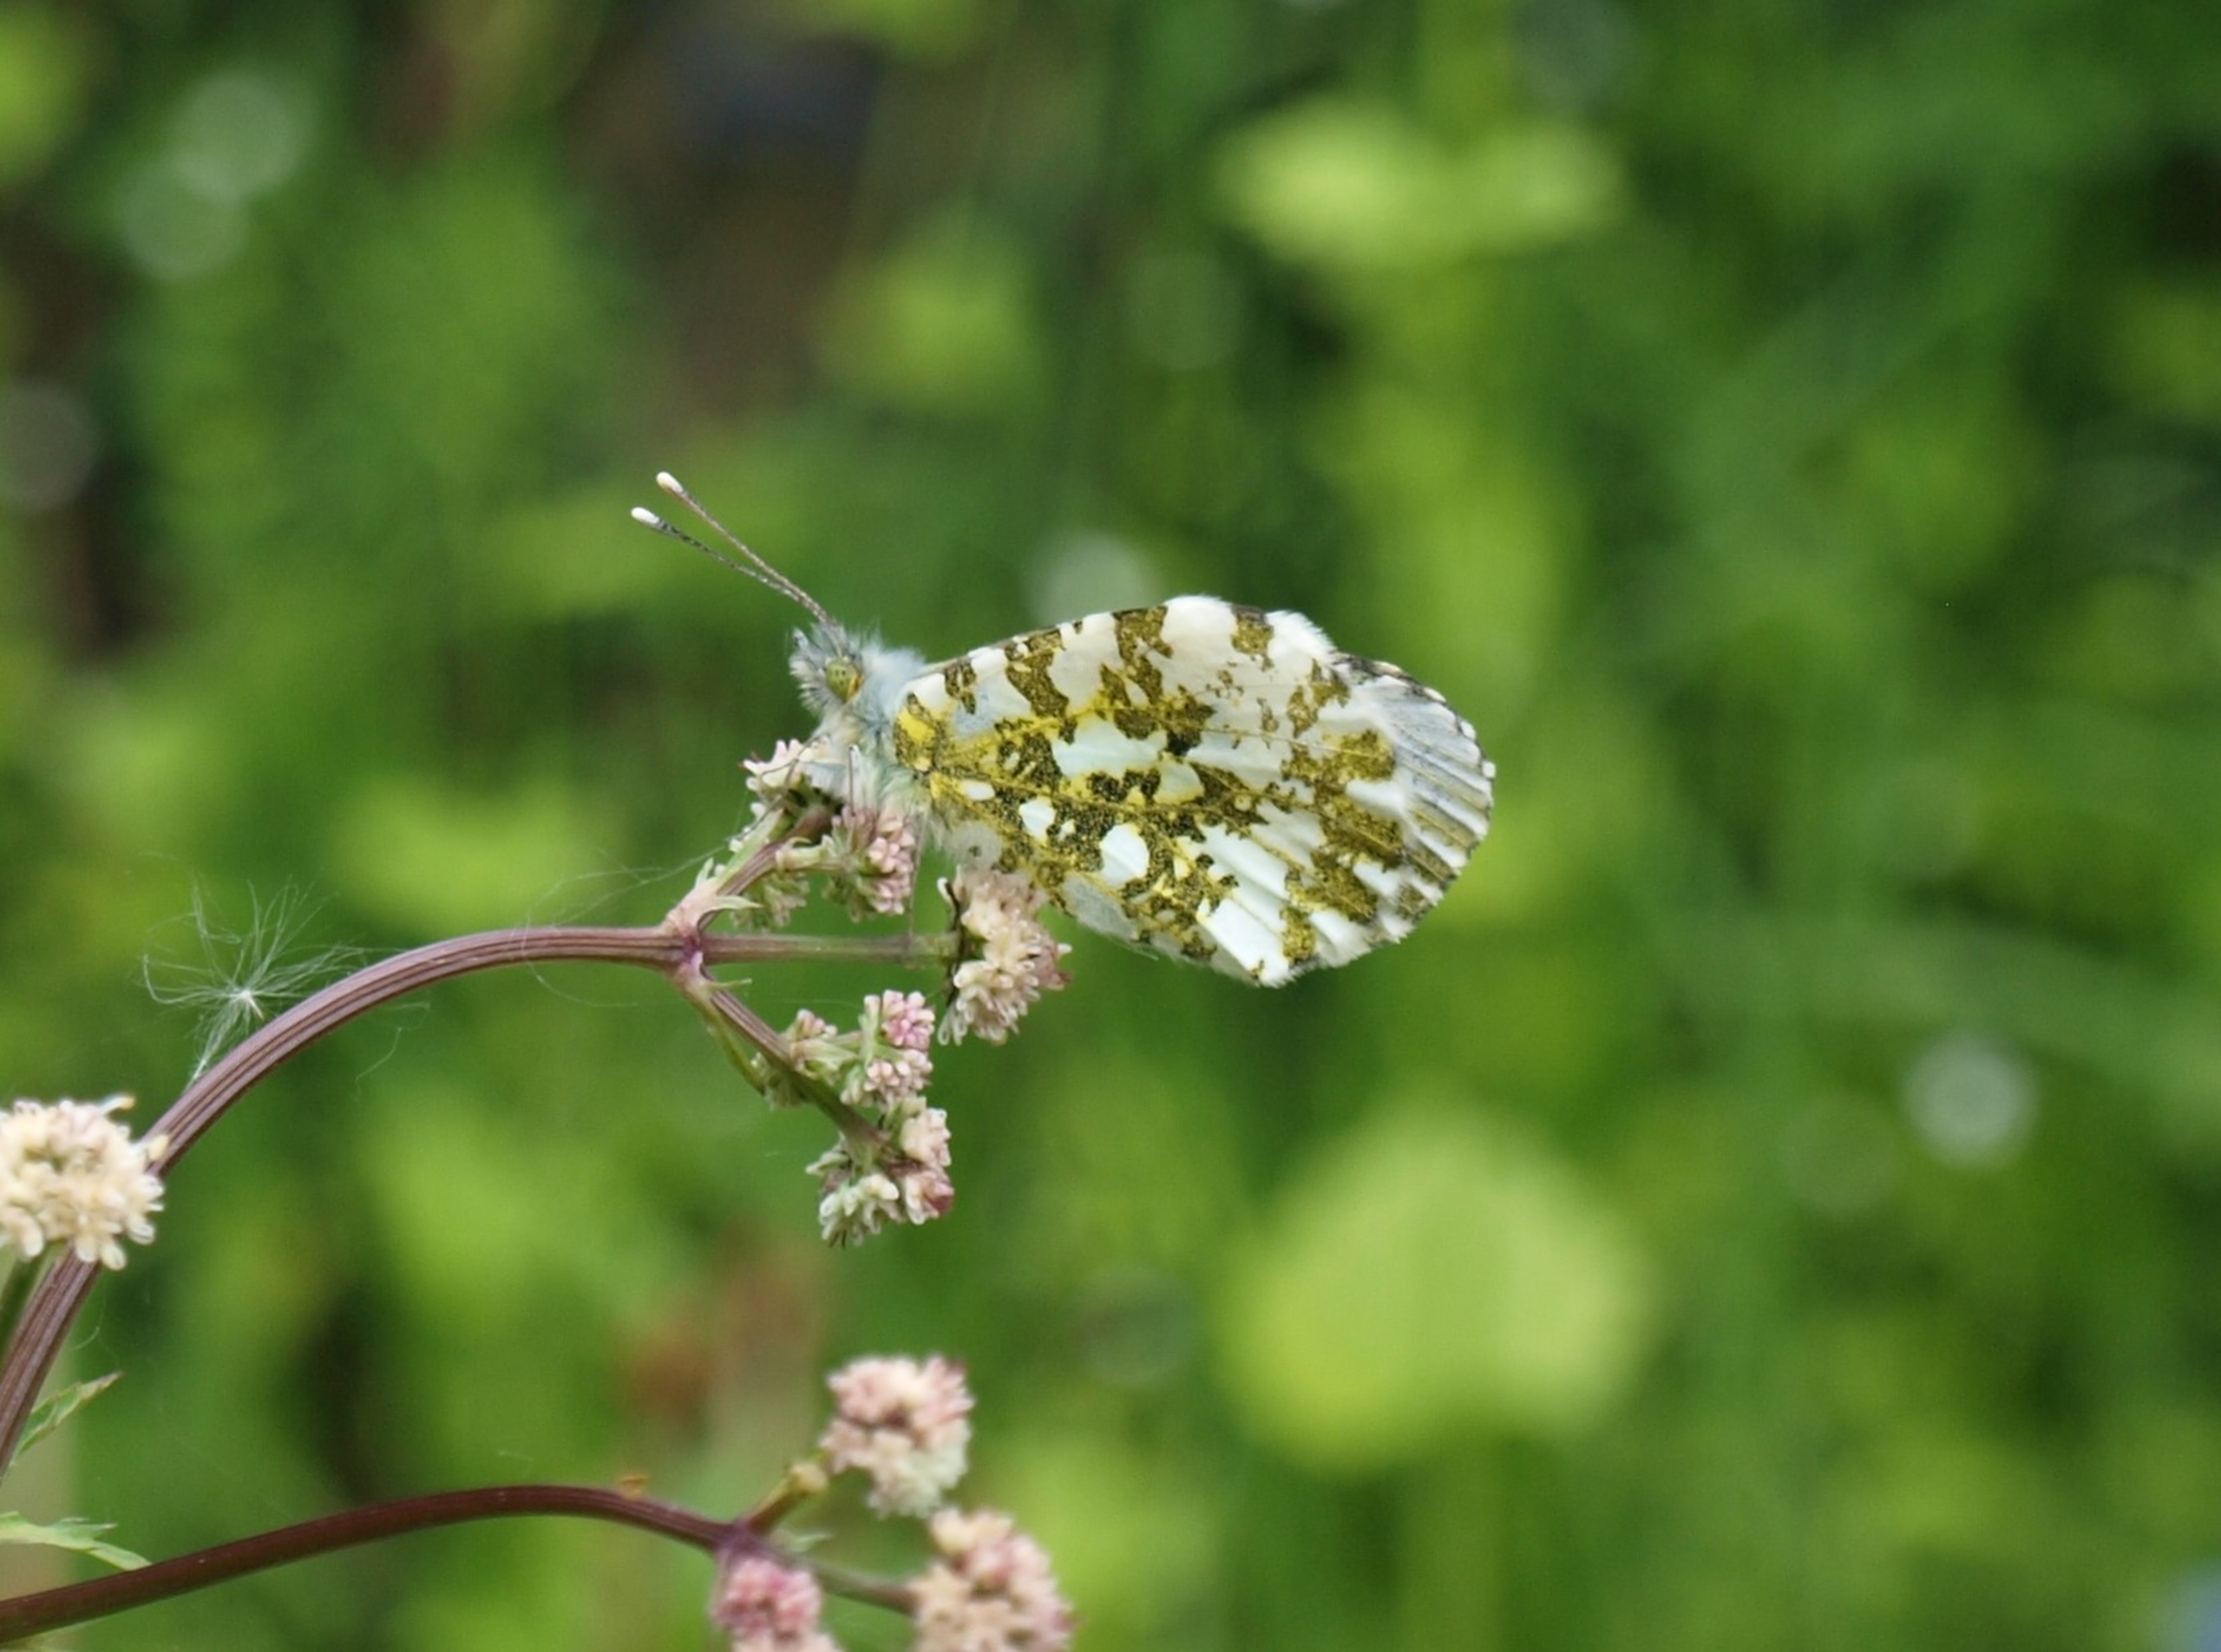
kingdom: Animalia
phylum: Arthropoda
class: Insecta
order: Lepidoptera
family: Pieridae
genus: Anthocharis
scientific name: Anthocharis cardamines
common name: Aurora
